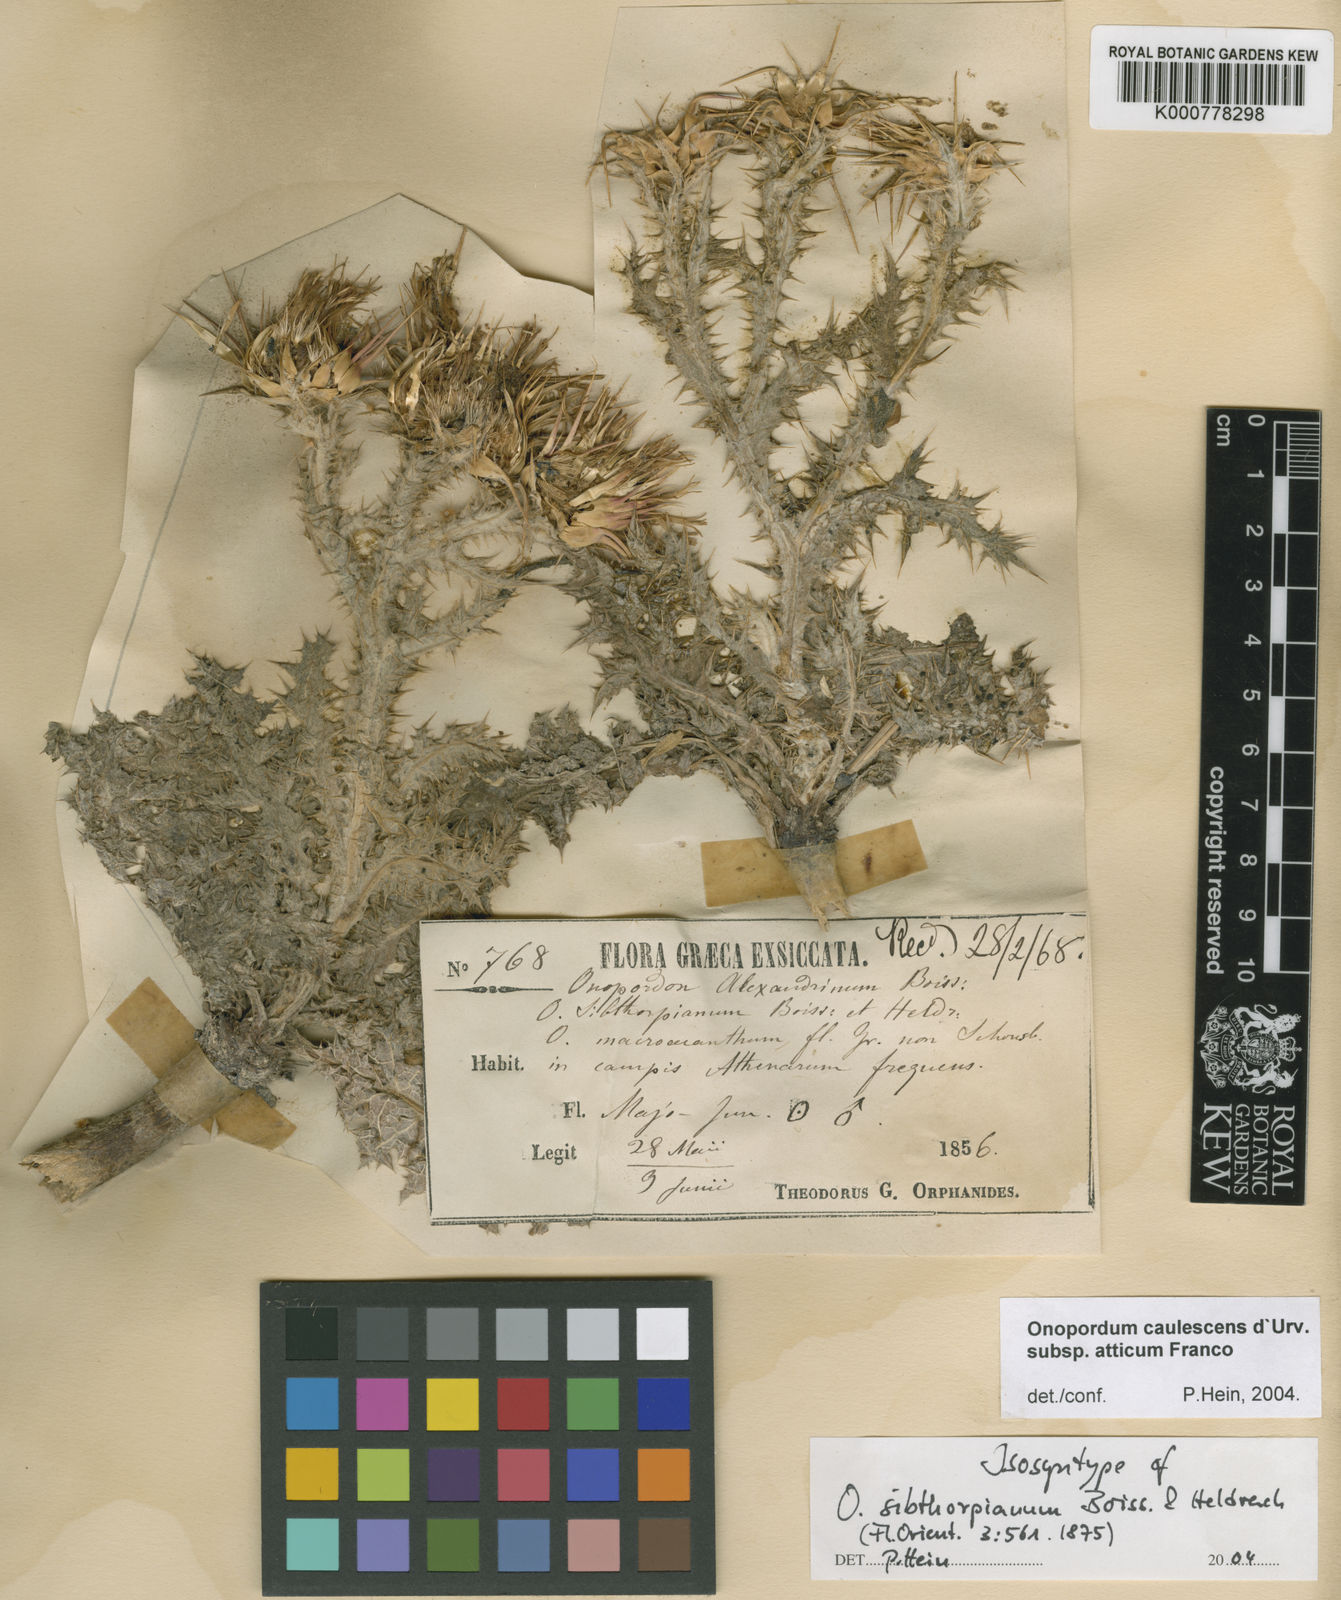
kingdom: Plantae
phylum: Tracheophyta
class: Magnoliopsida
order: Asterales
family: Asteraceae
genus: Onopordum
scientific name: Onopordum caulescens
